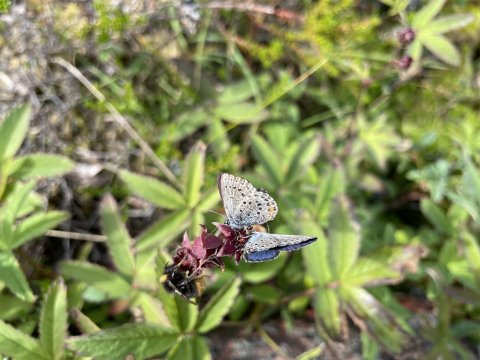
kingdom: Animalia
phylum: Arthropoda
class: Insecta
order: Lepidoptera
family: Lycaenidae
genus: Lycaeides
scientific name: Lycaeides idas
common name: Northern Blue
